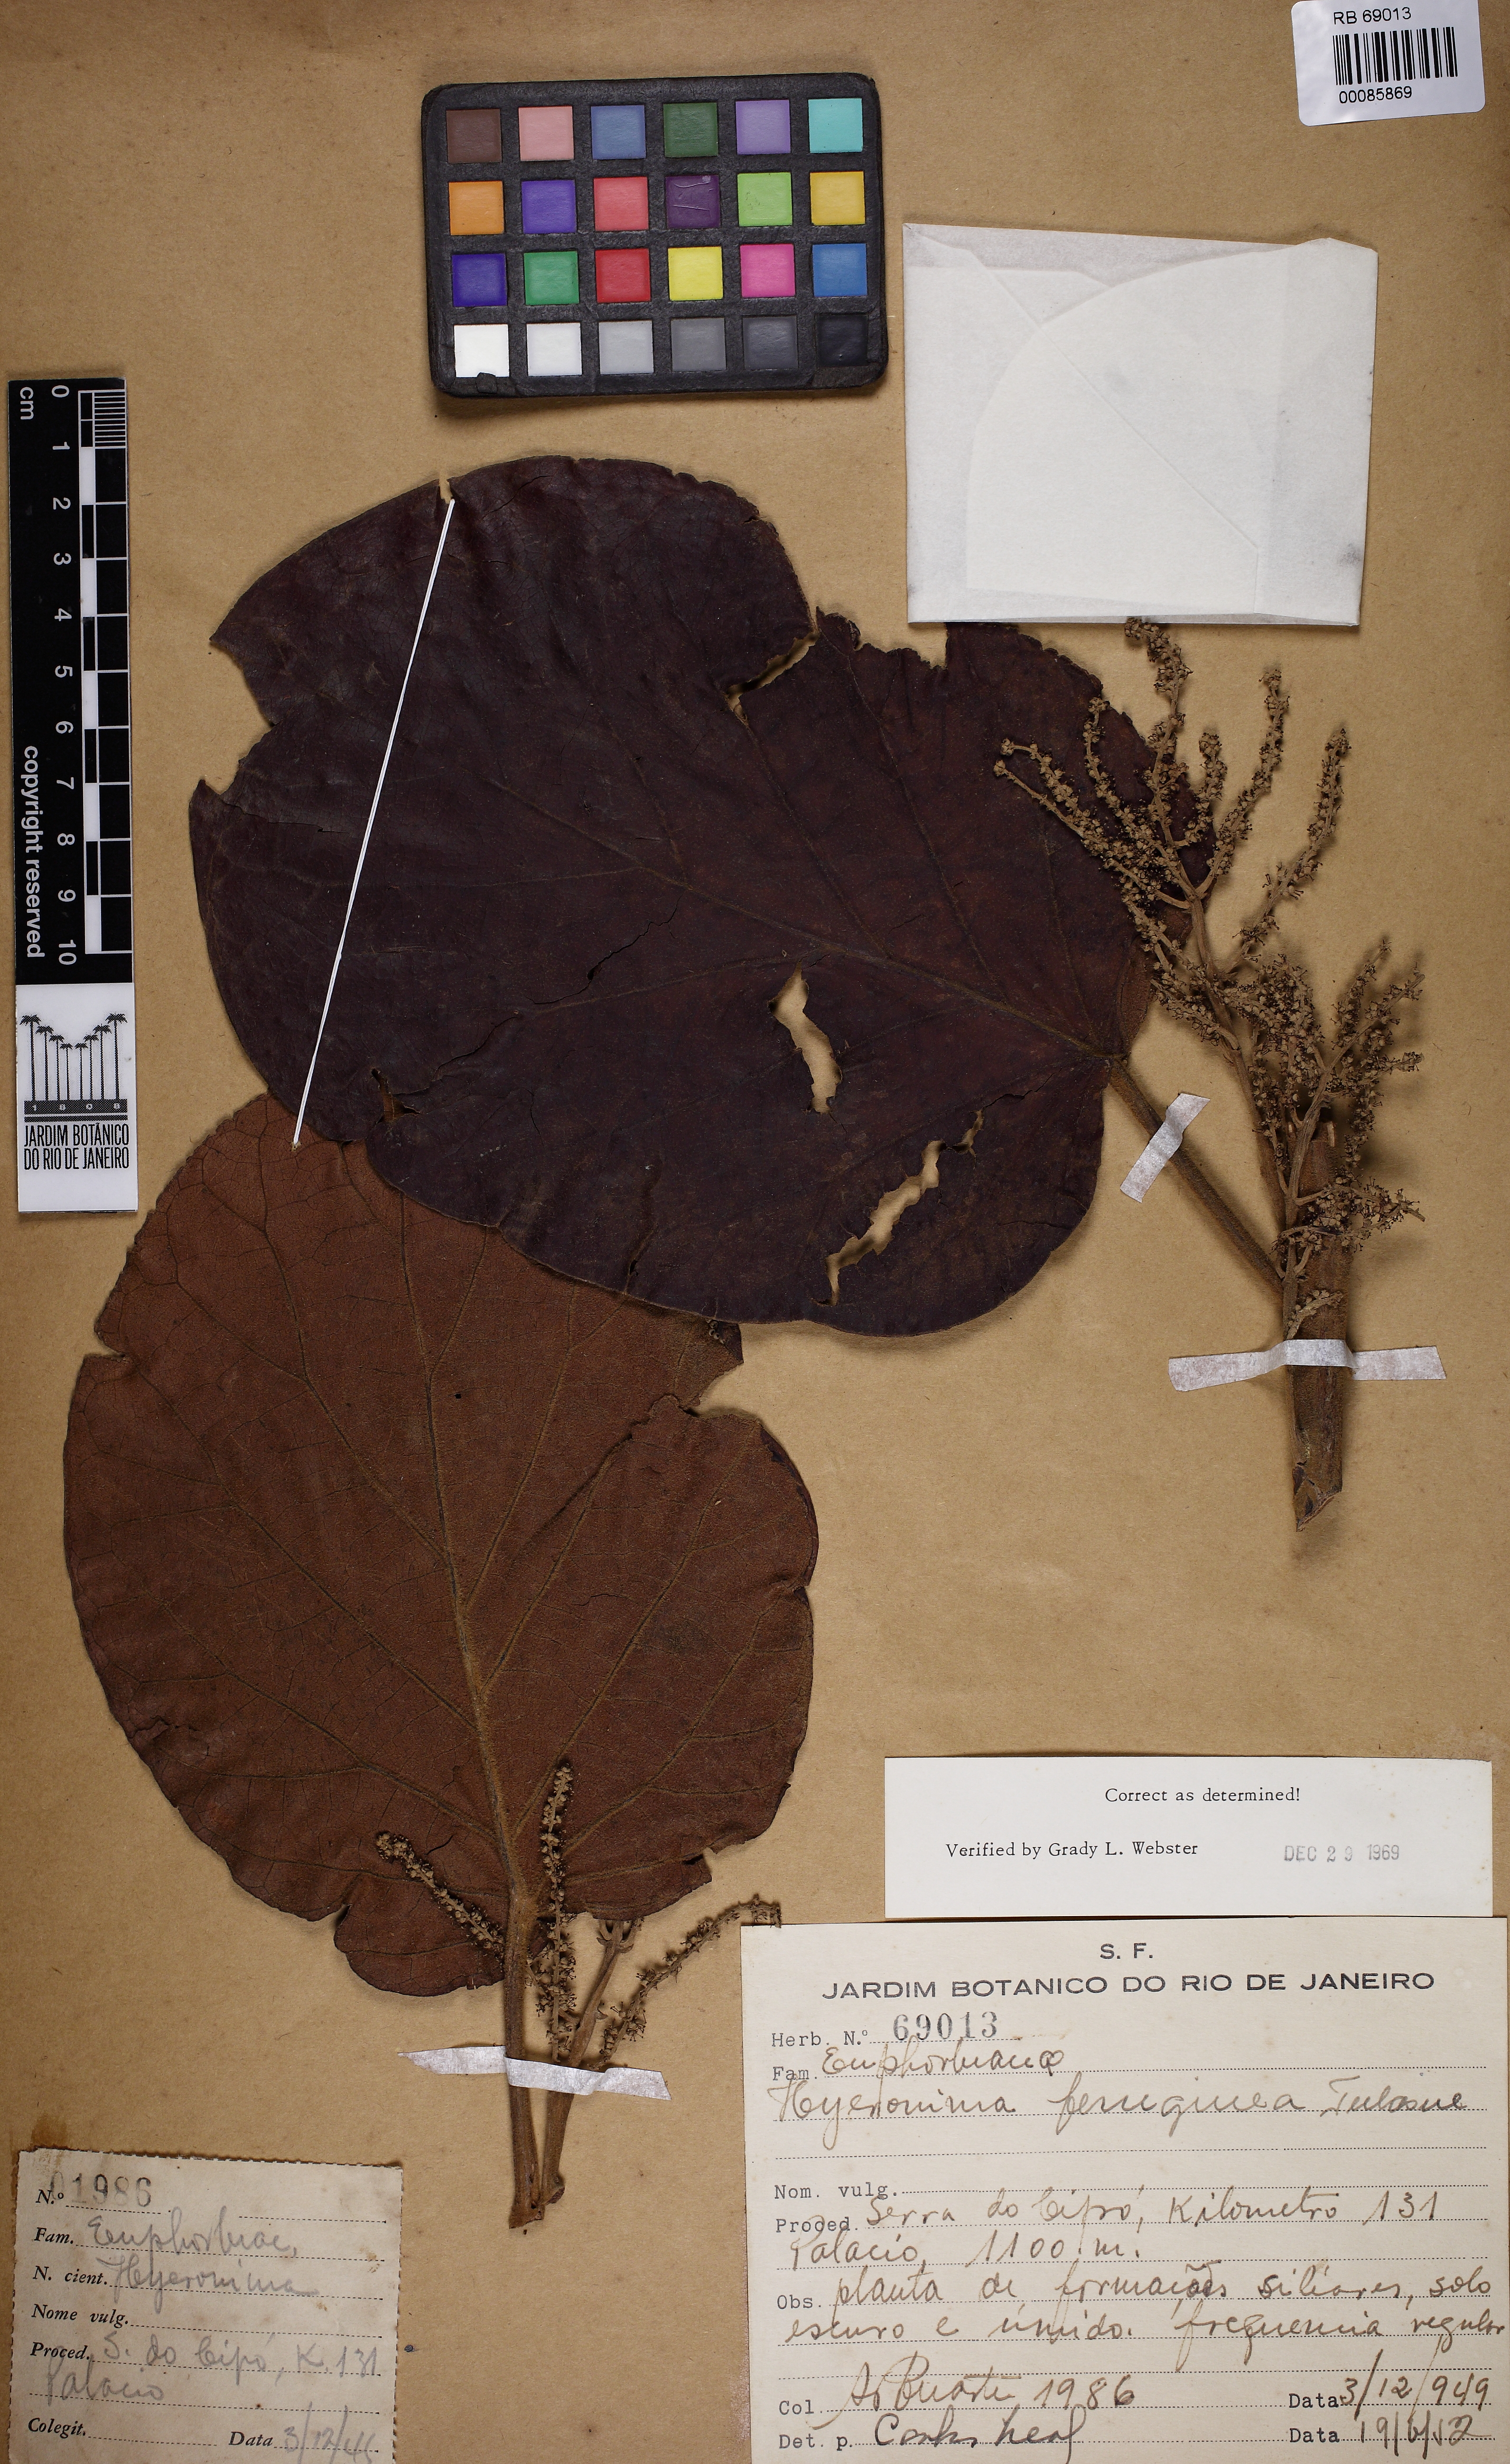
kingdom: Plantae
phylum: Tracheophyta
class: Magnoliopsida
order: Malpighiales
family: Phyllanthaceae
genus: Hieronyma
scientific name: Hieronyma alchorneoides
